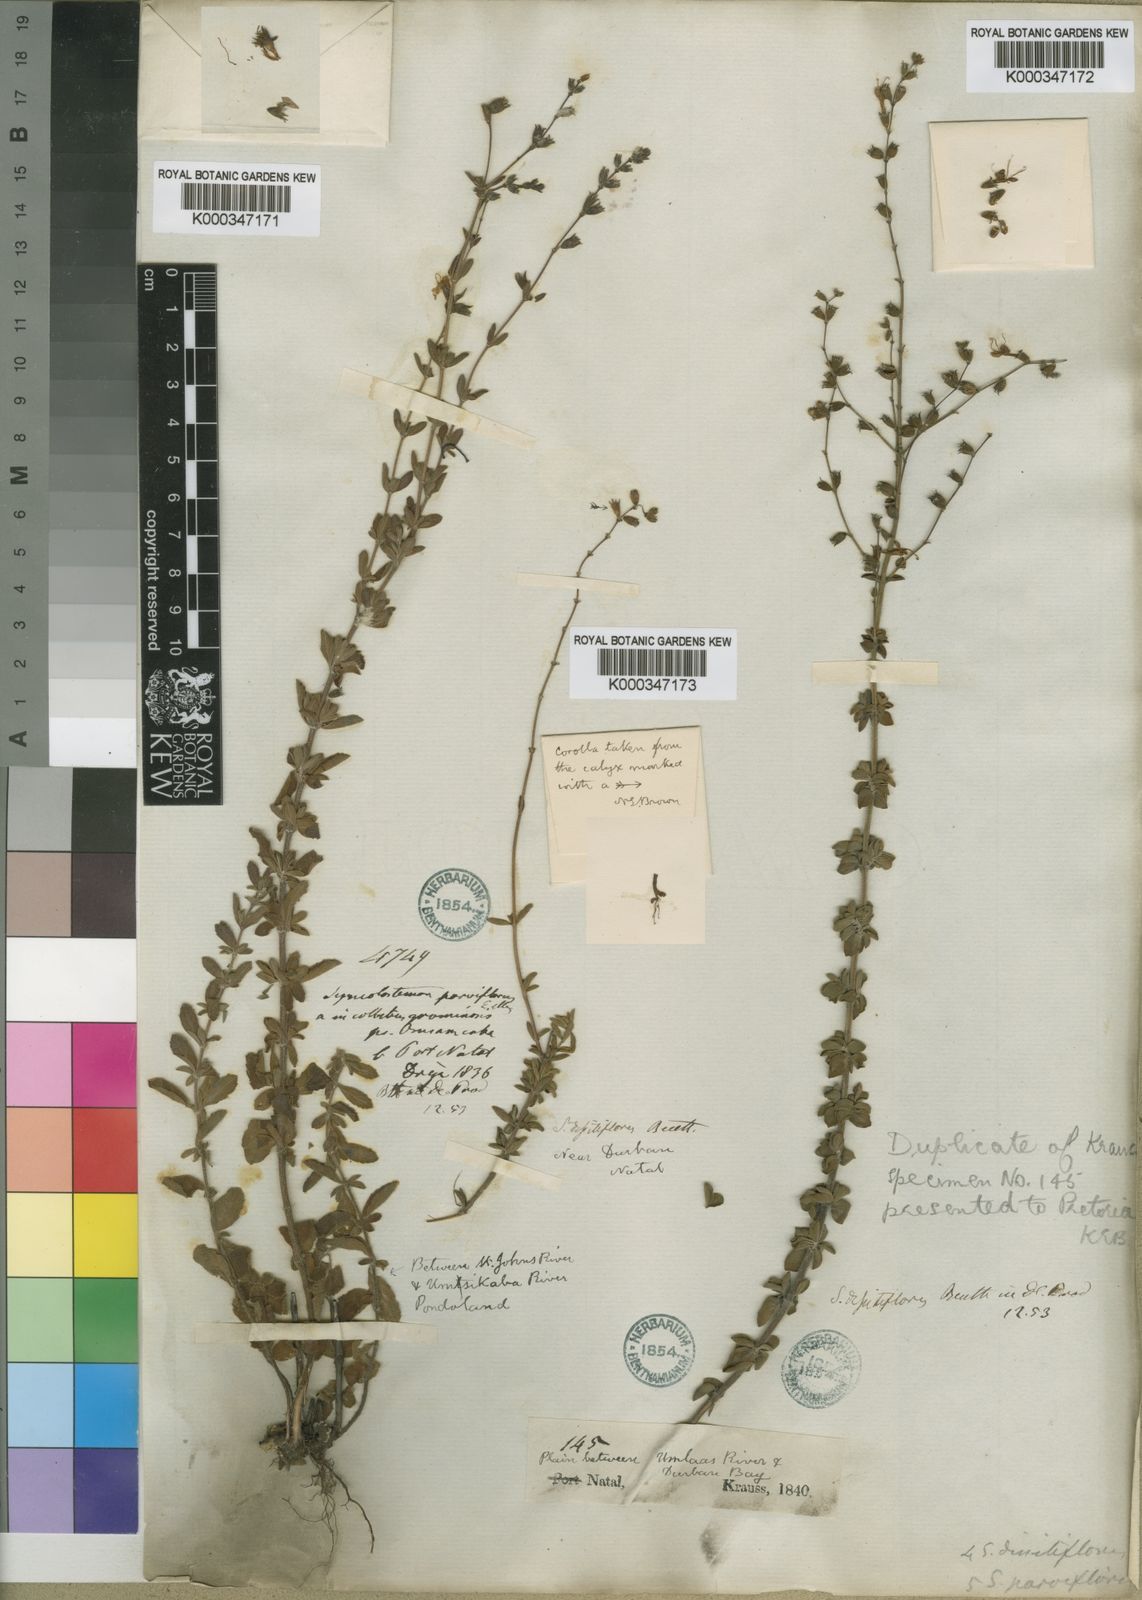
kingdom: Plantae
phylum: Tracheophyta
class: Magnoliopsida
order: Lamiales
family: Lamiaceae
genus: Syncolostemon
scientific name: Syncolostemon parviflorus
